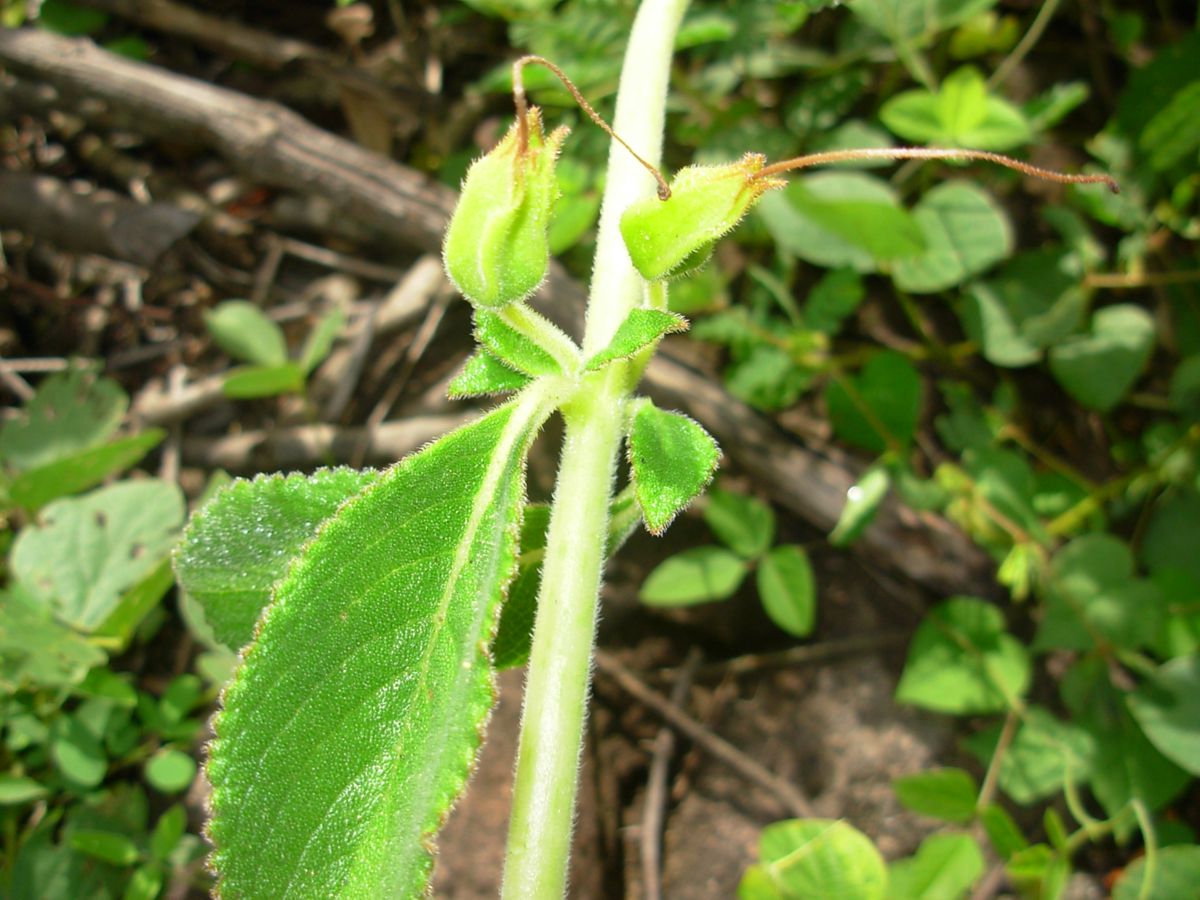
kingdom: Plantae
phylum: Tracheophyta
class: Magnoliopsida
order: Lamiales
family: Gesneriaceae
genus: Sinningia
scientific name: Sinningia incarnata
